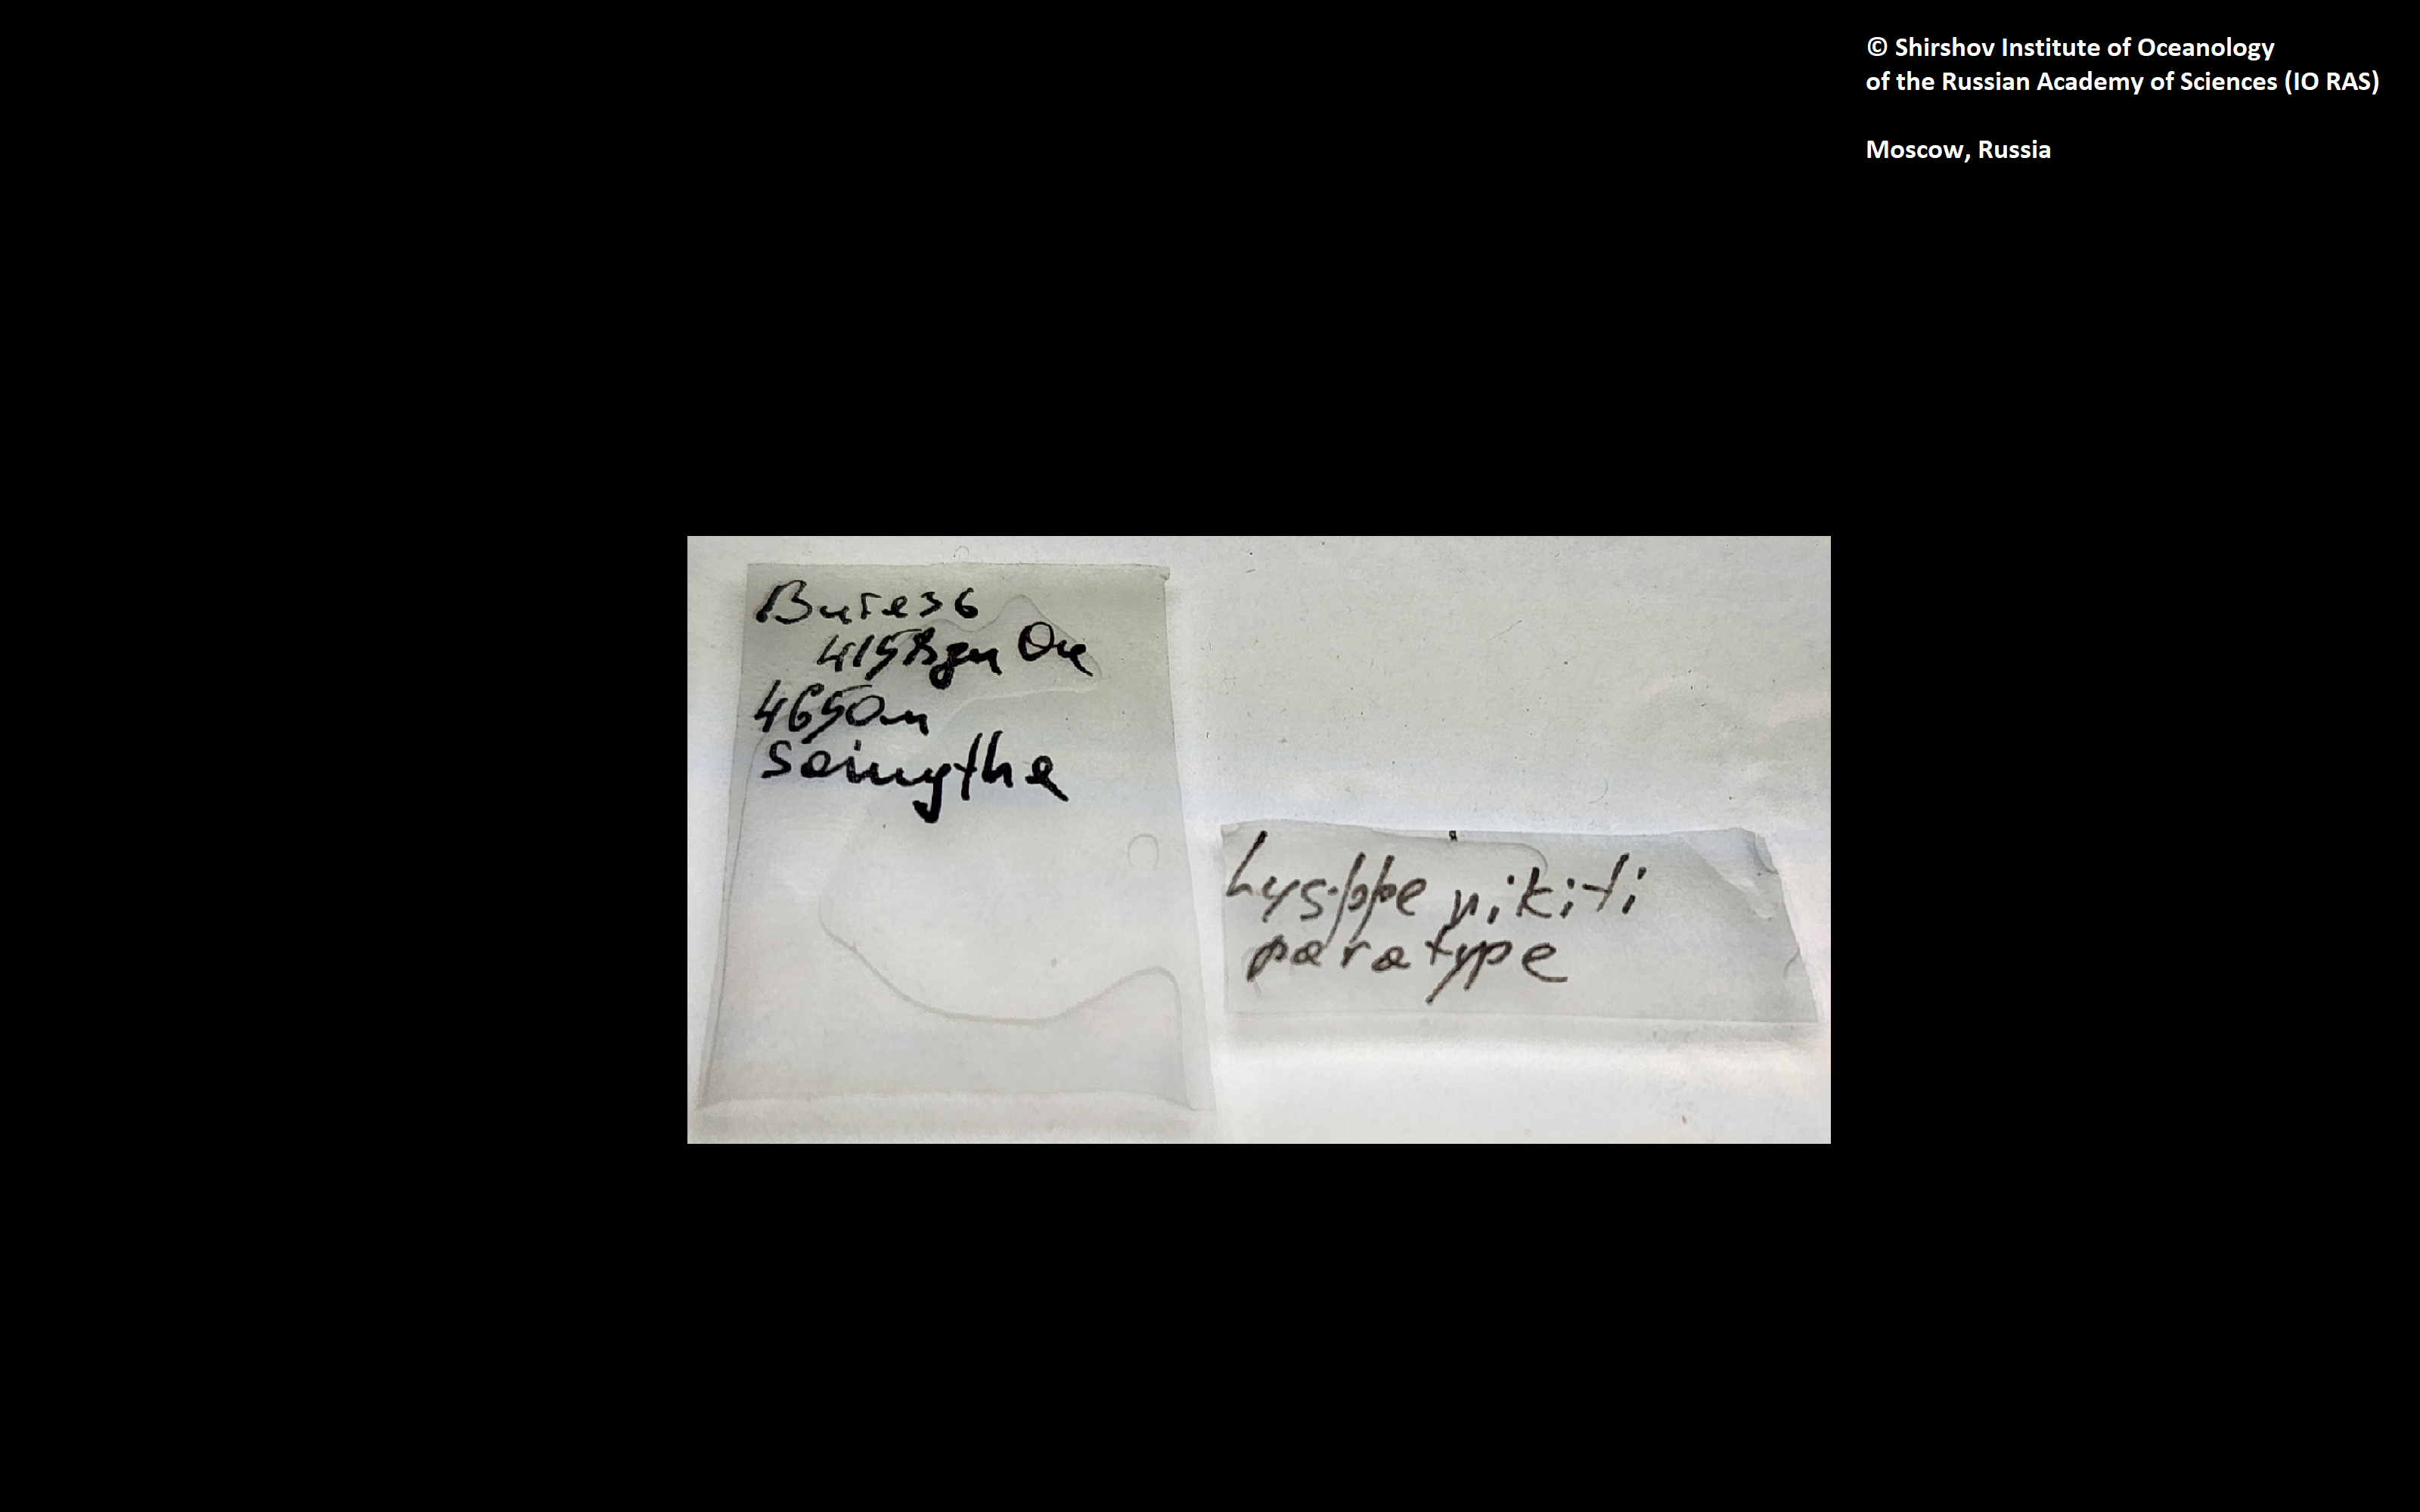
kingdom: Animalia
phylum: Annelida
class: Polychaeta
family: Ampharetidae
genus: Lysippe
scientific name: Lysippe nikiti
